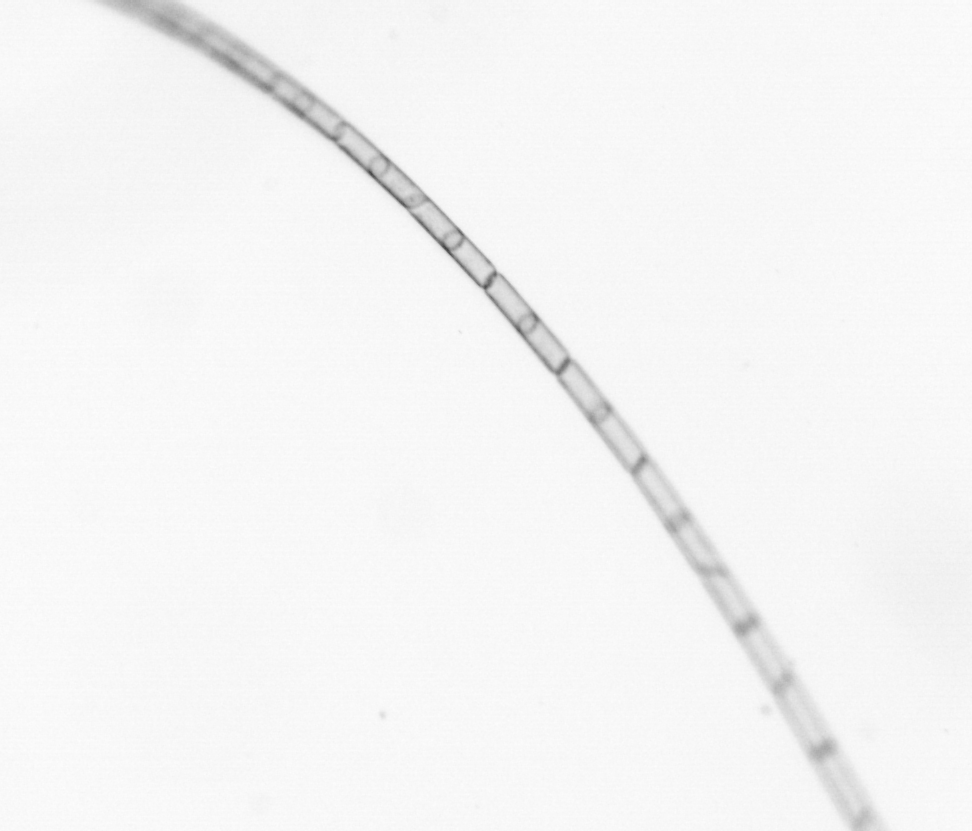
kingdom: Chromista
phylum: Ochrophyta
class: Bacillariophyceae
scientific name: Bacillariophyceae
